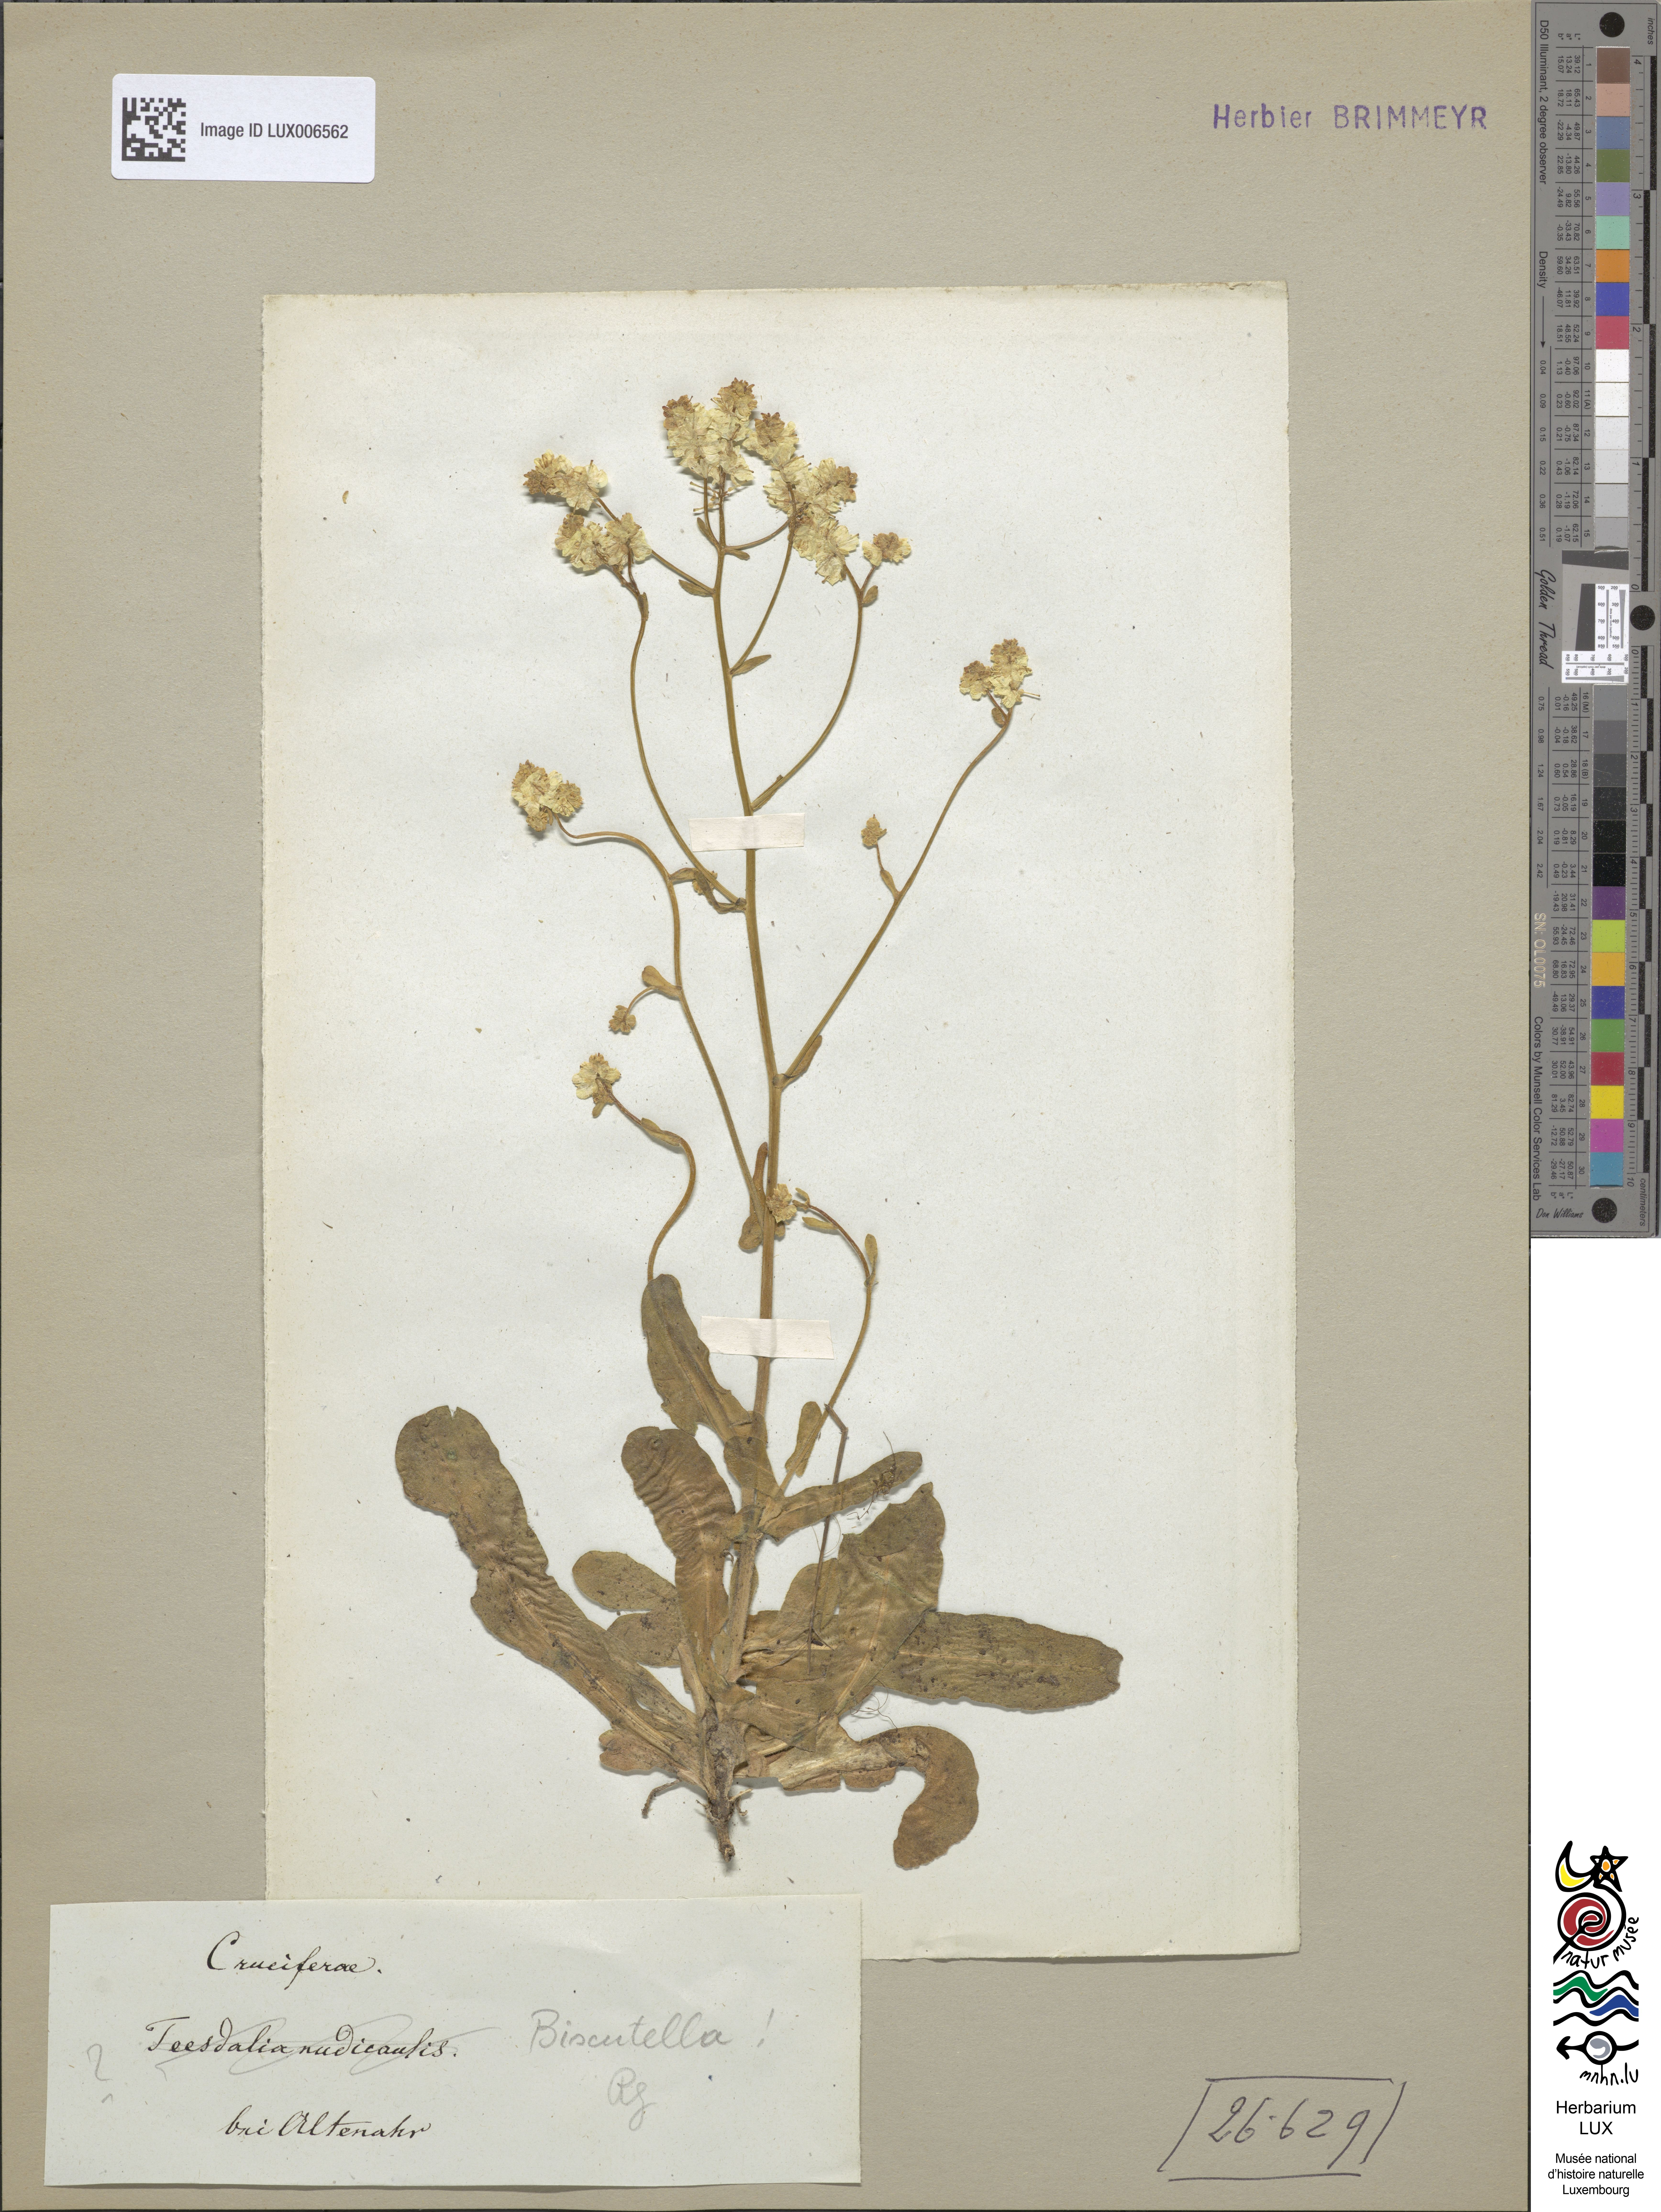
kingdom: Plantae
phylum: Tracheophyta
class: Magnoliopsida
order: Brassicales
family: Brassicaceae
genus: Biscutella
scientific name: Biscutella
